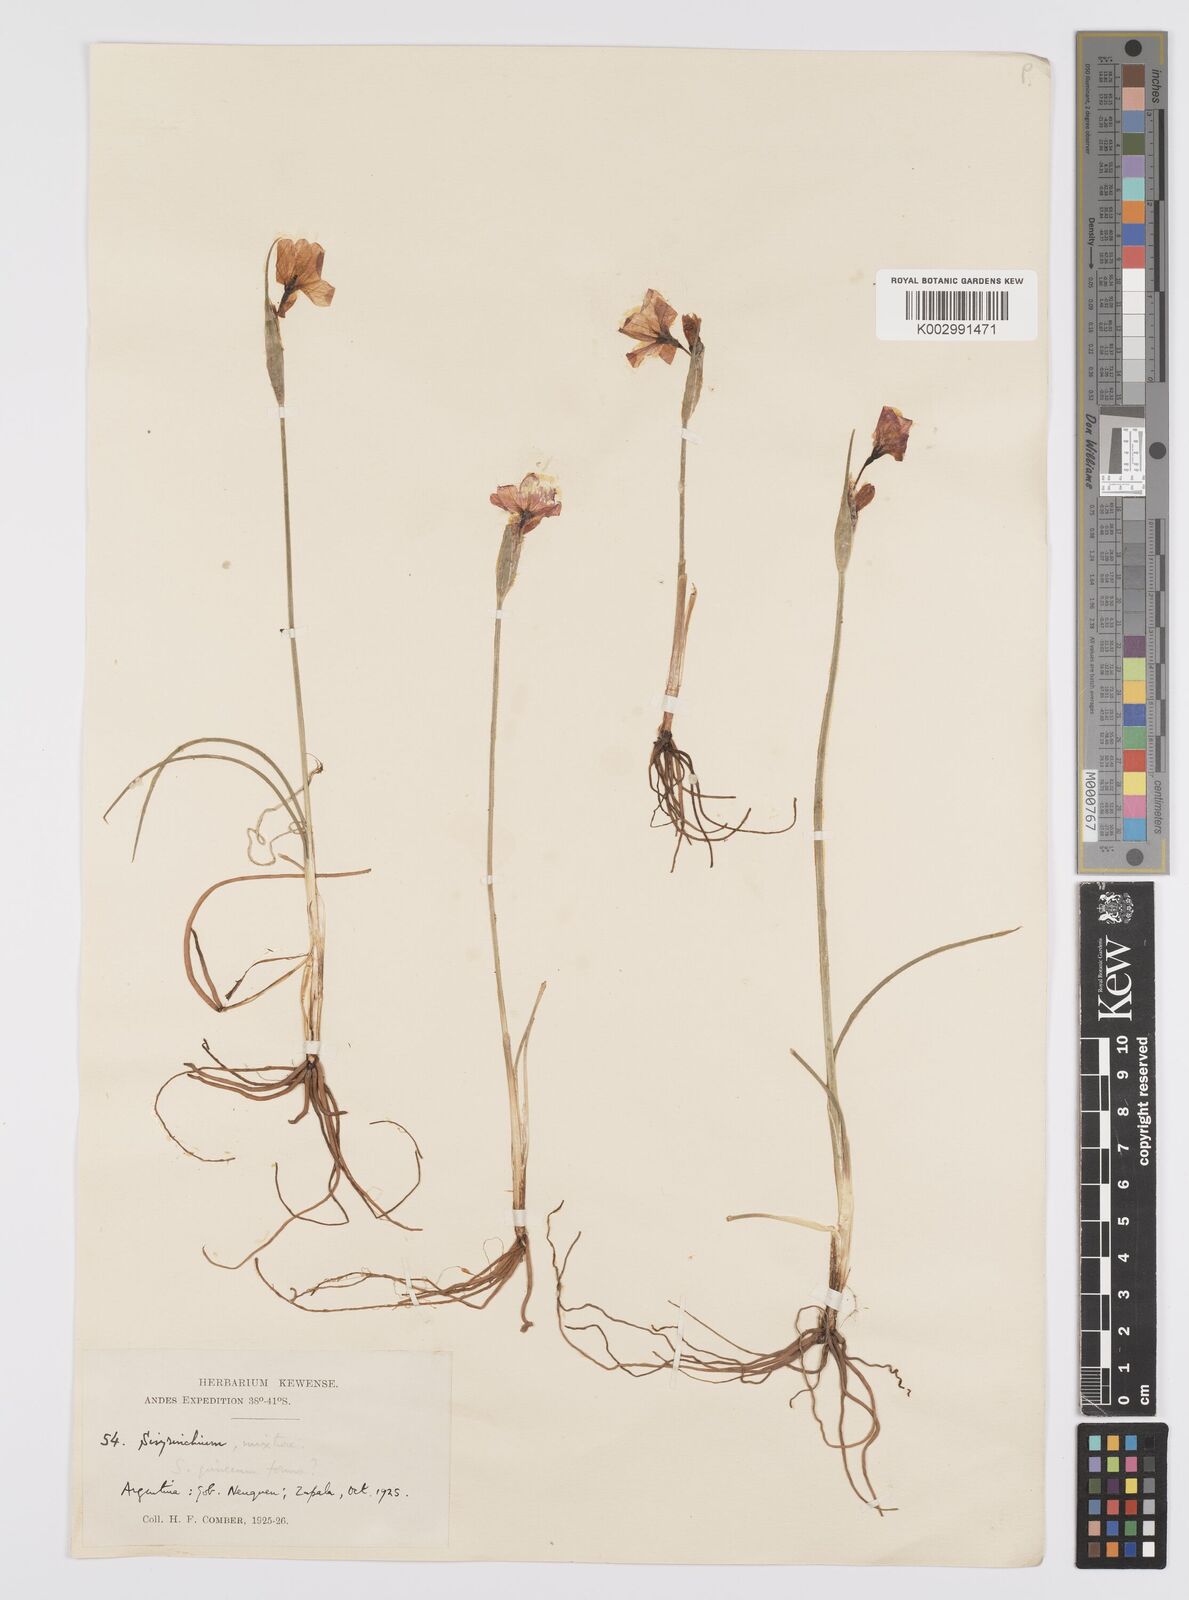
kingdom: Plantae
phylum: Tracheophyta
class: Liliopsida
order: Asparagales
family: Iridaceae
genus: Olsynium
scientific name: Olsynium junceum
